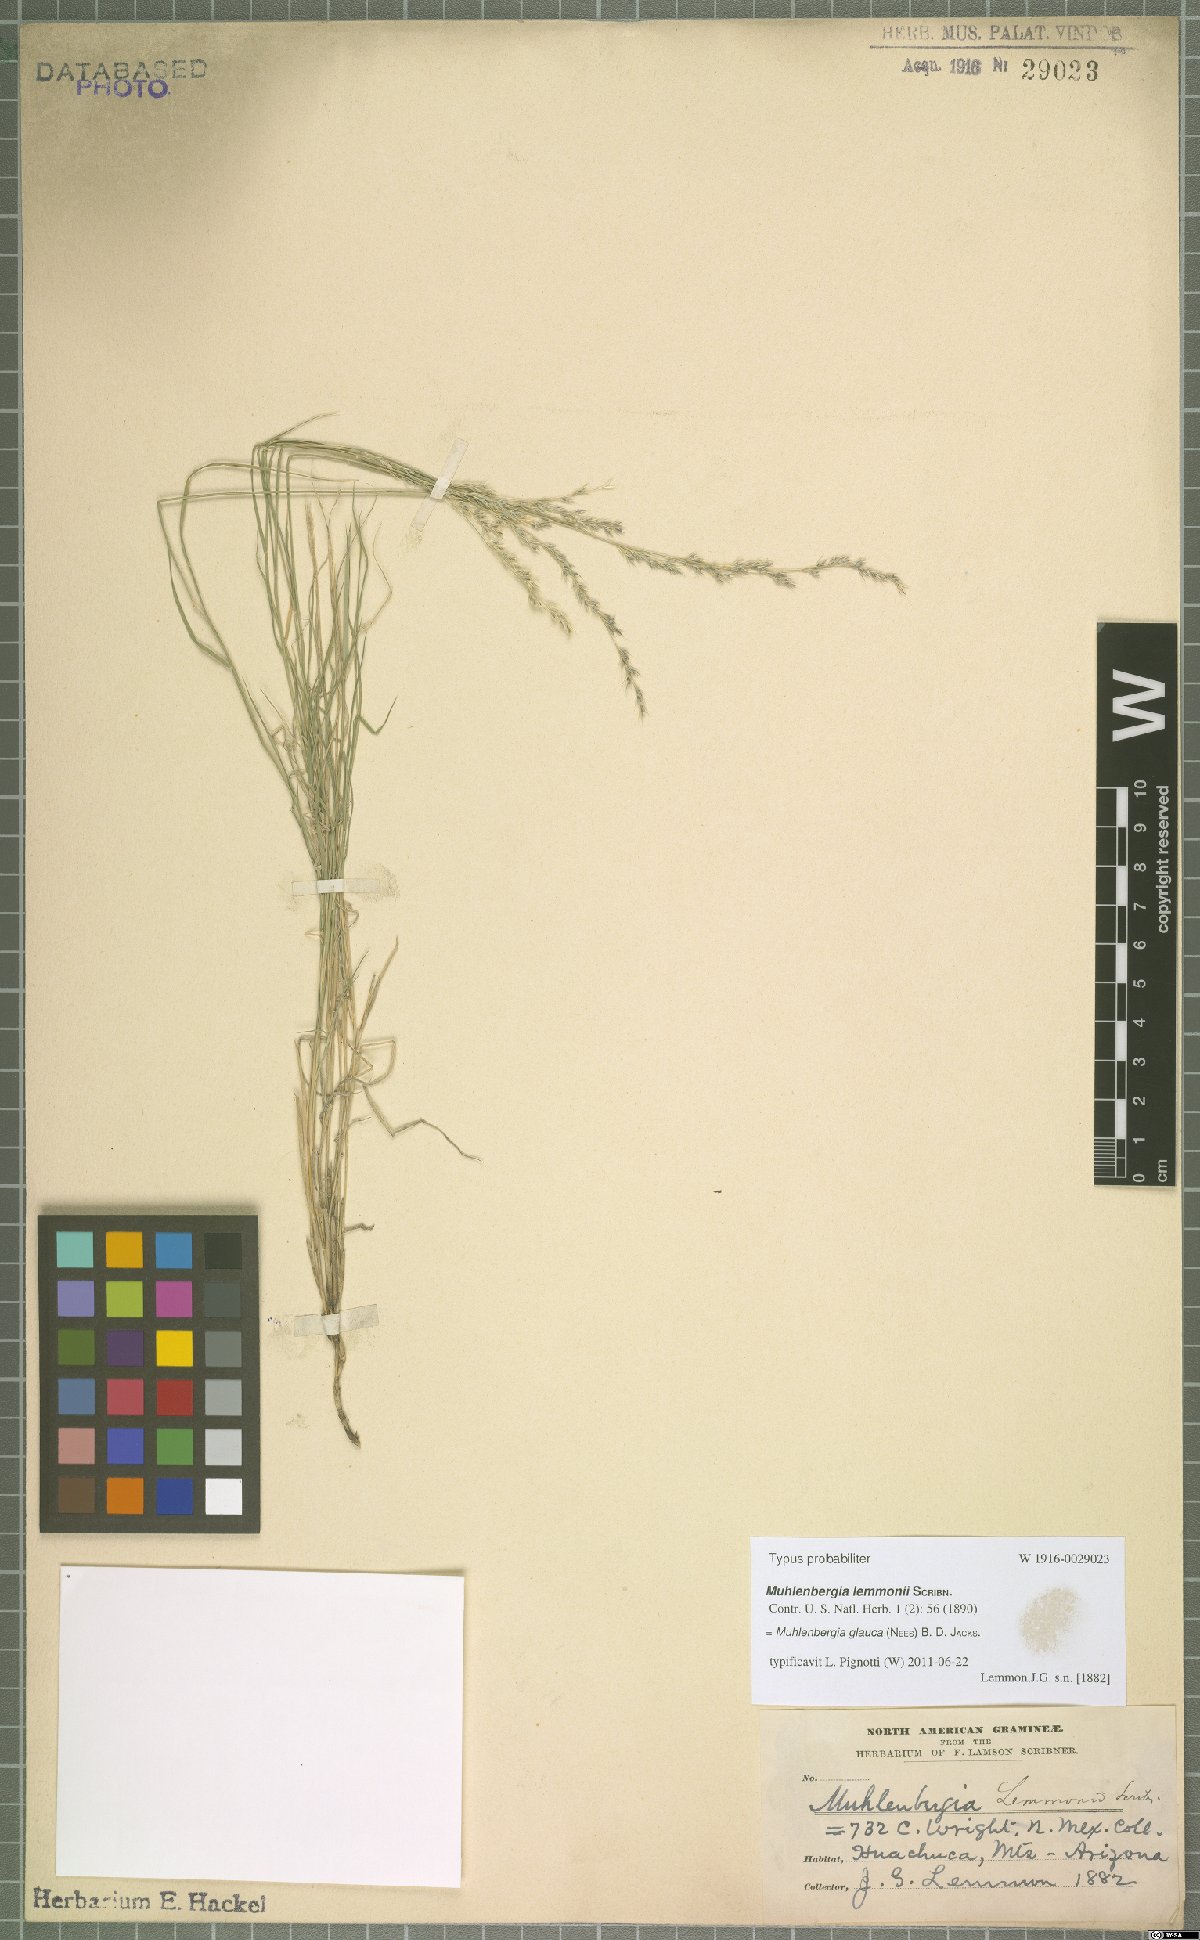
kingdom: Plantae
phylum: Tracheophyta
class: Liliopsida
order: Poales
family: Poaceae
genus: Muhlenbergia
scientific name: Muhlenbergia glauca
